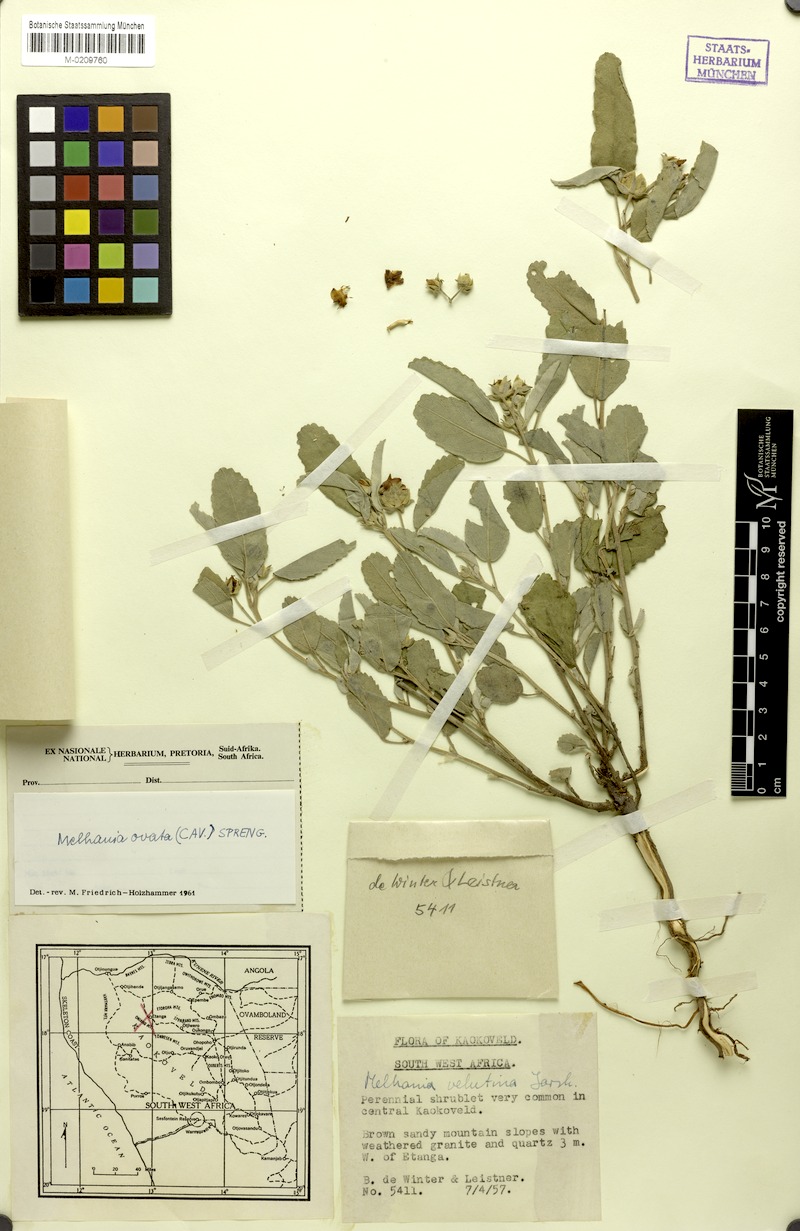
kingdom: Plantae
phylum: Tracheophyta
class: Magnoliopsida
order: Malvales
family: Malvaceae
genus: Melhania
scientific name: Melhania ovata
